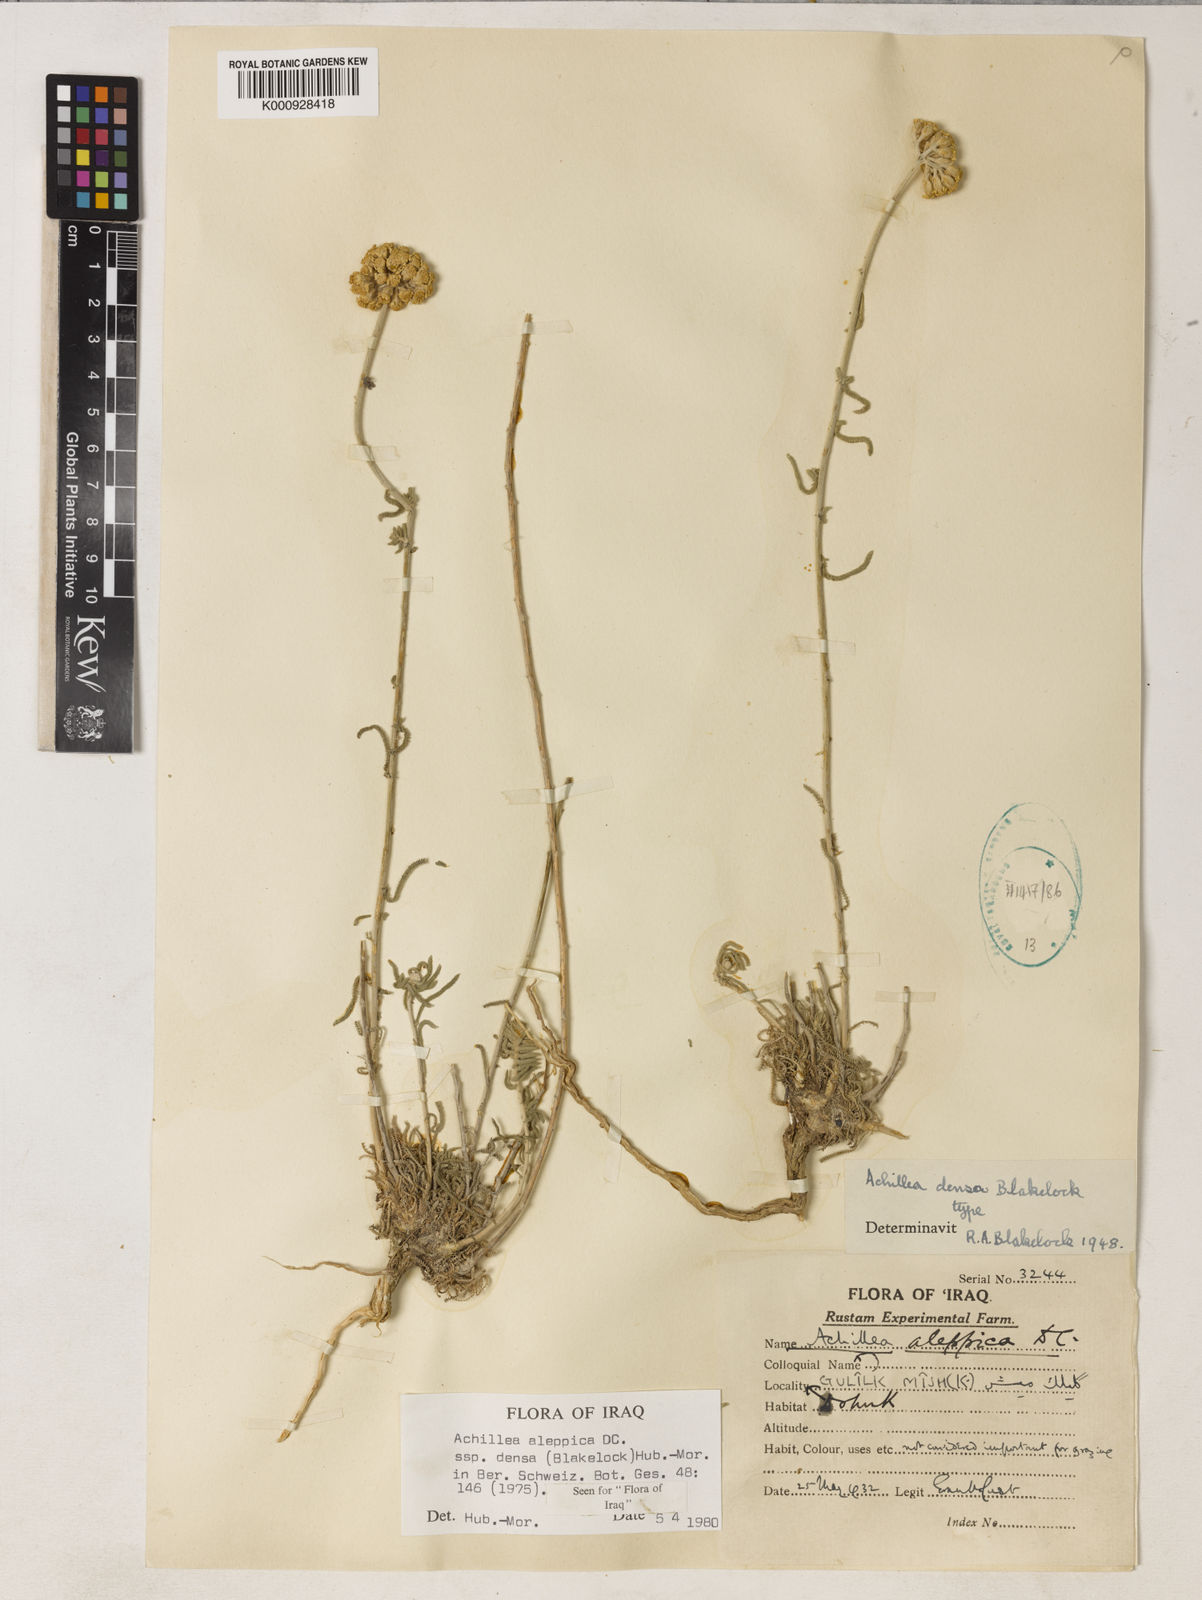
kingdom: Plantae
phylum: Tracheophyta
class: Magnoliopsida
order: Asterales
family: Asteraceae
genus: Achillea
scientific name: Achillea wilhelmsii
